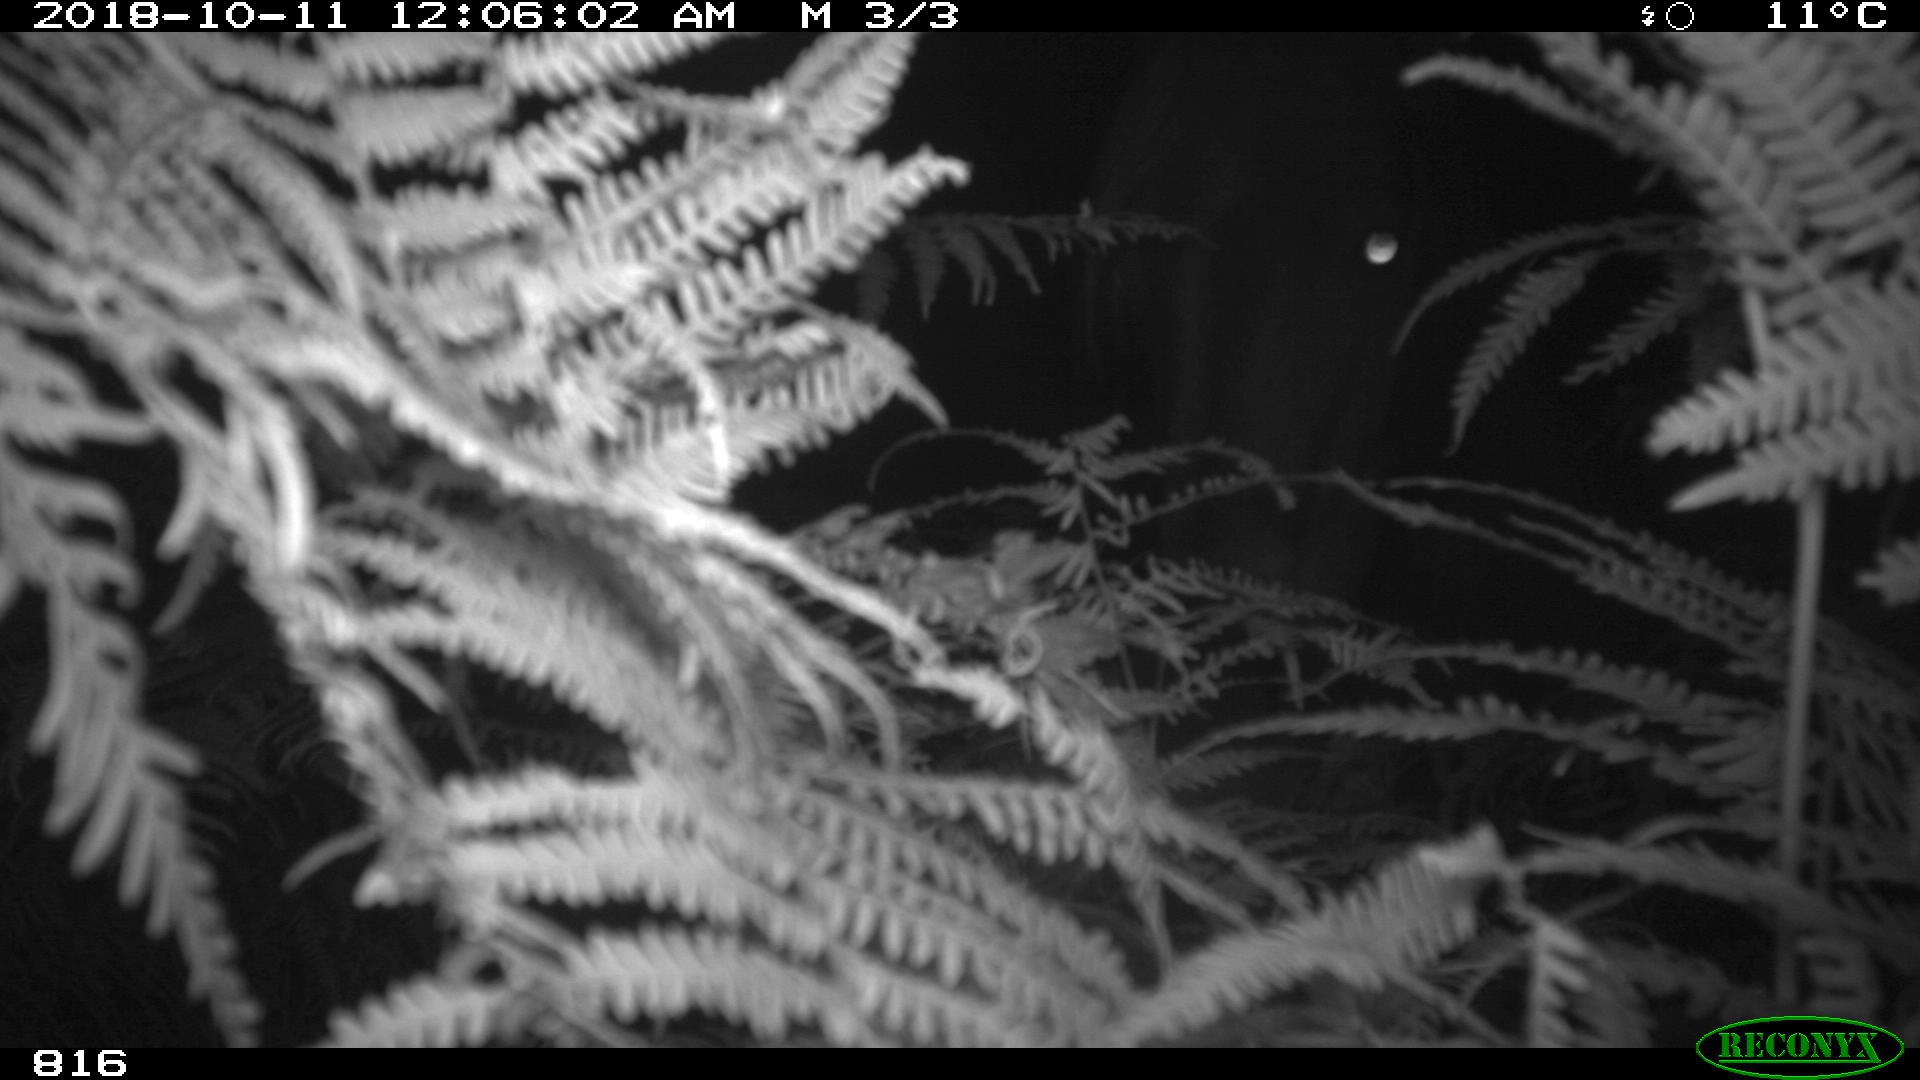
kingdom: Animalia
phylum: Chordata
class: Mammalia
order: Perissodactyla
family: Equidae
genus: Equus
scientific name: Equus caballus
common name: Horse
